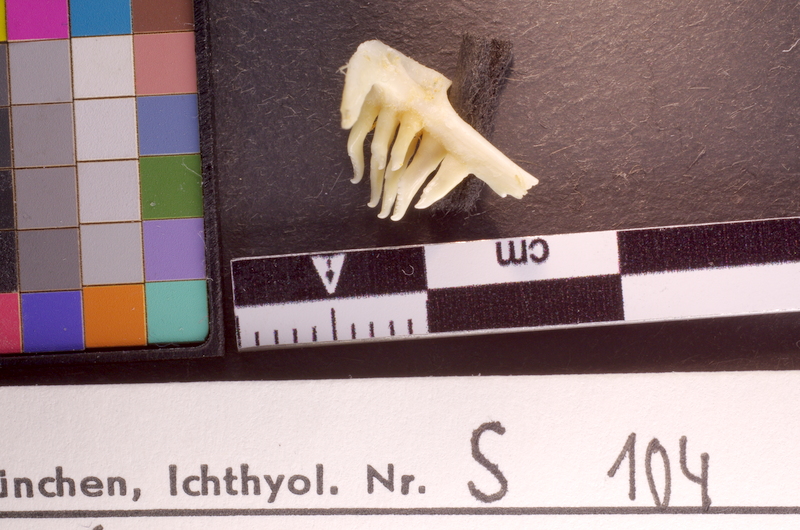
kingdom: Animalia
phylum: Chordata
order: Cypriniformes
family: Cyprinidae
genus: Pelecus
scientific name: Pelecus cultratus
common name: Ziege
